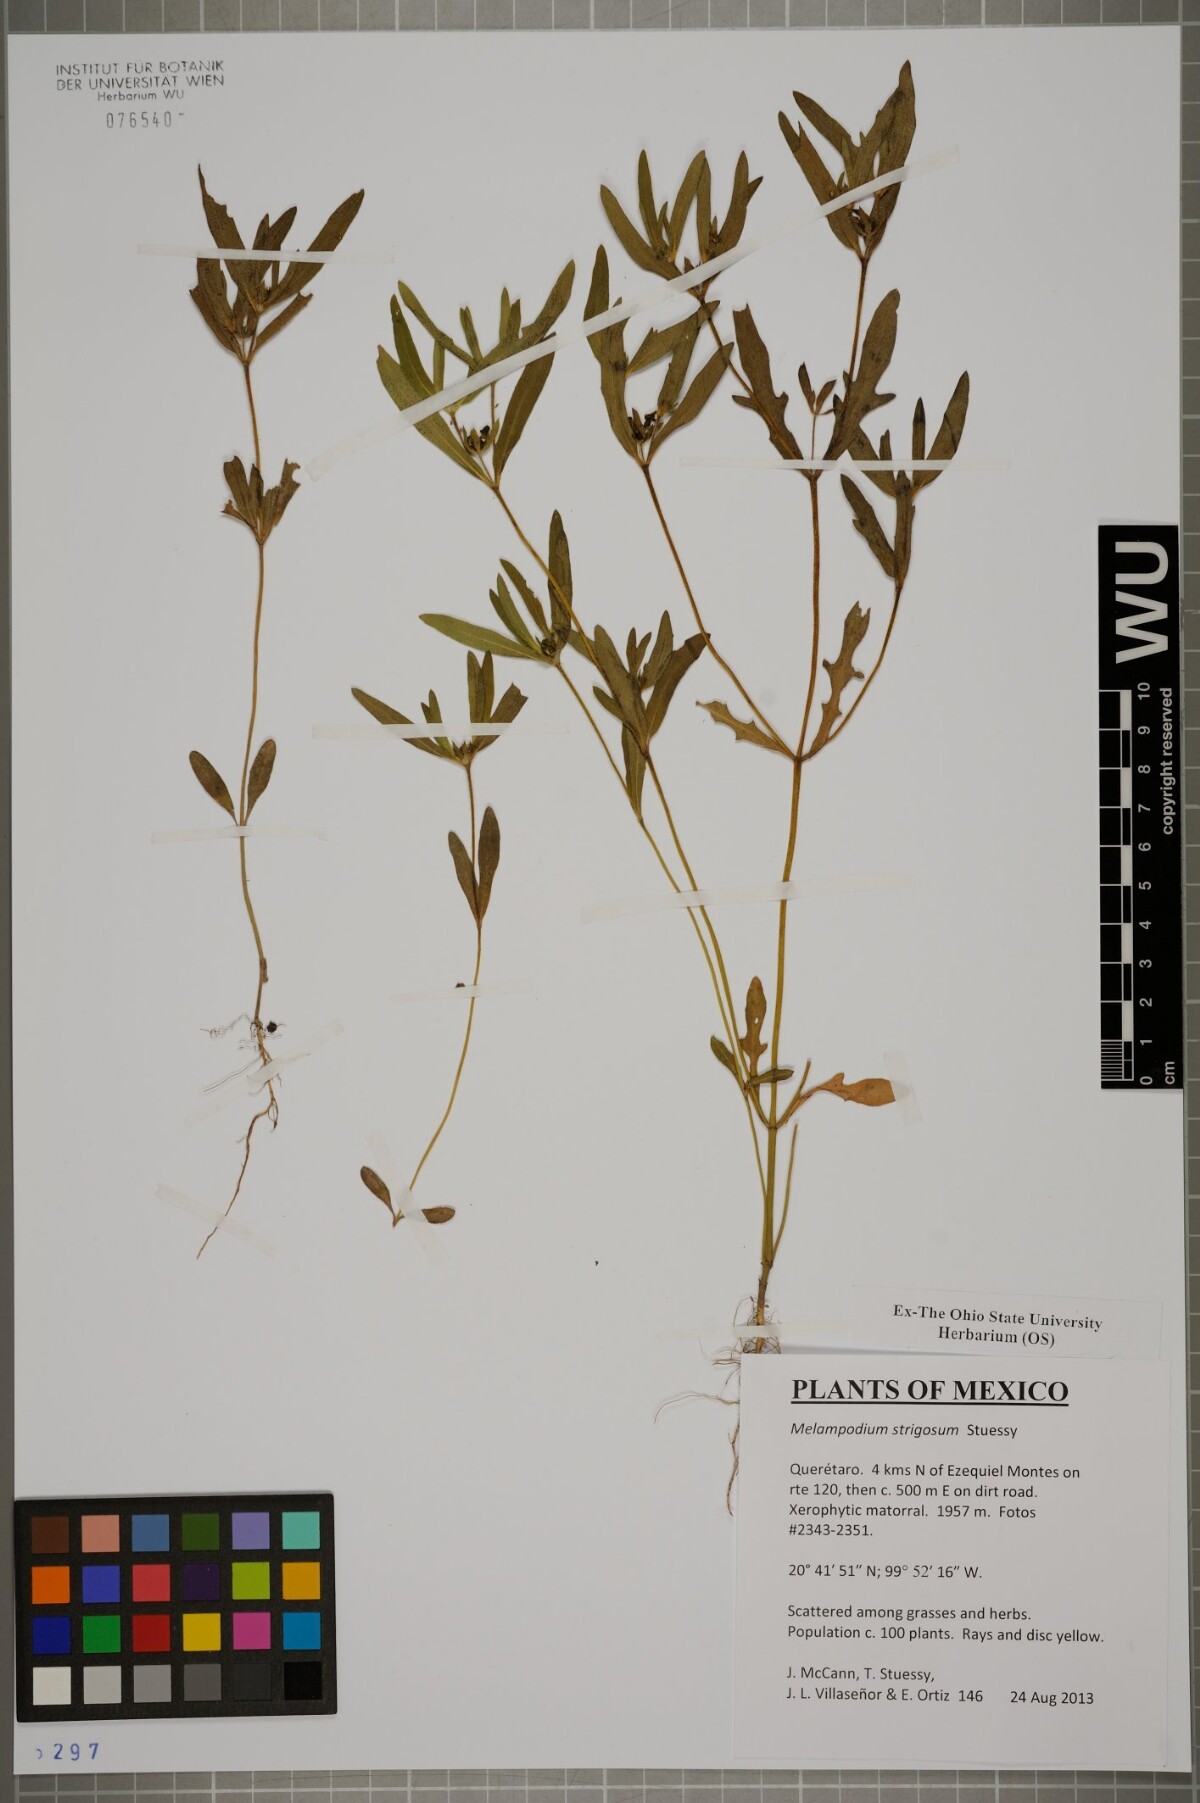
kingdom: Plantae
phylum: Tracheophyta
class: Magnoliopsida
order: Asterales
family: Asteraceae
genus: Melampodium
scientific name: Melampodium strigosum
